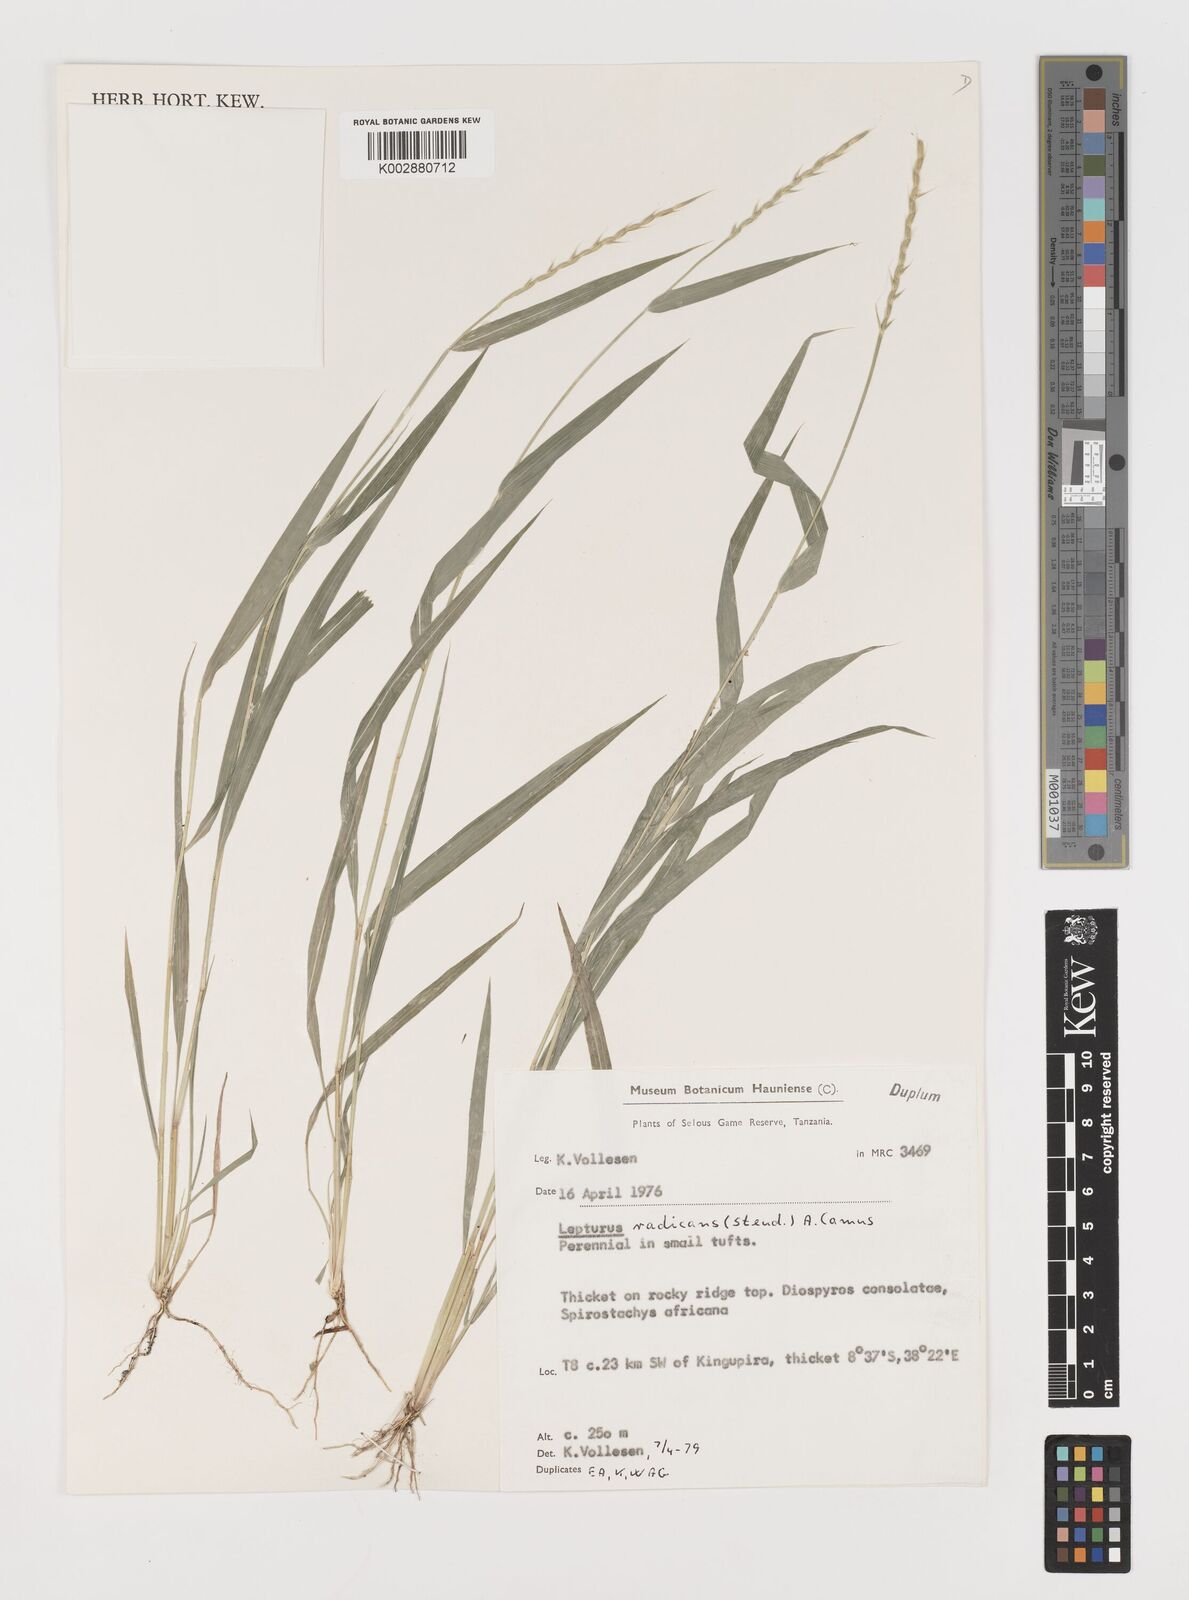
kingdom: Plantae
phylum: Tracheophyta
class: Liliopsida
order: Poales
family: Poaceae
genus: Lepturus
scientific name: Lepturus radicans
